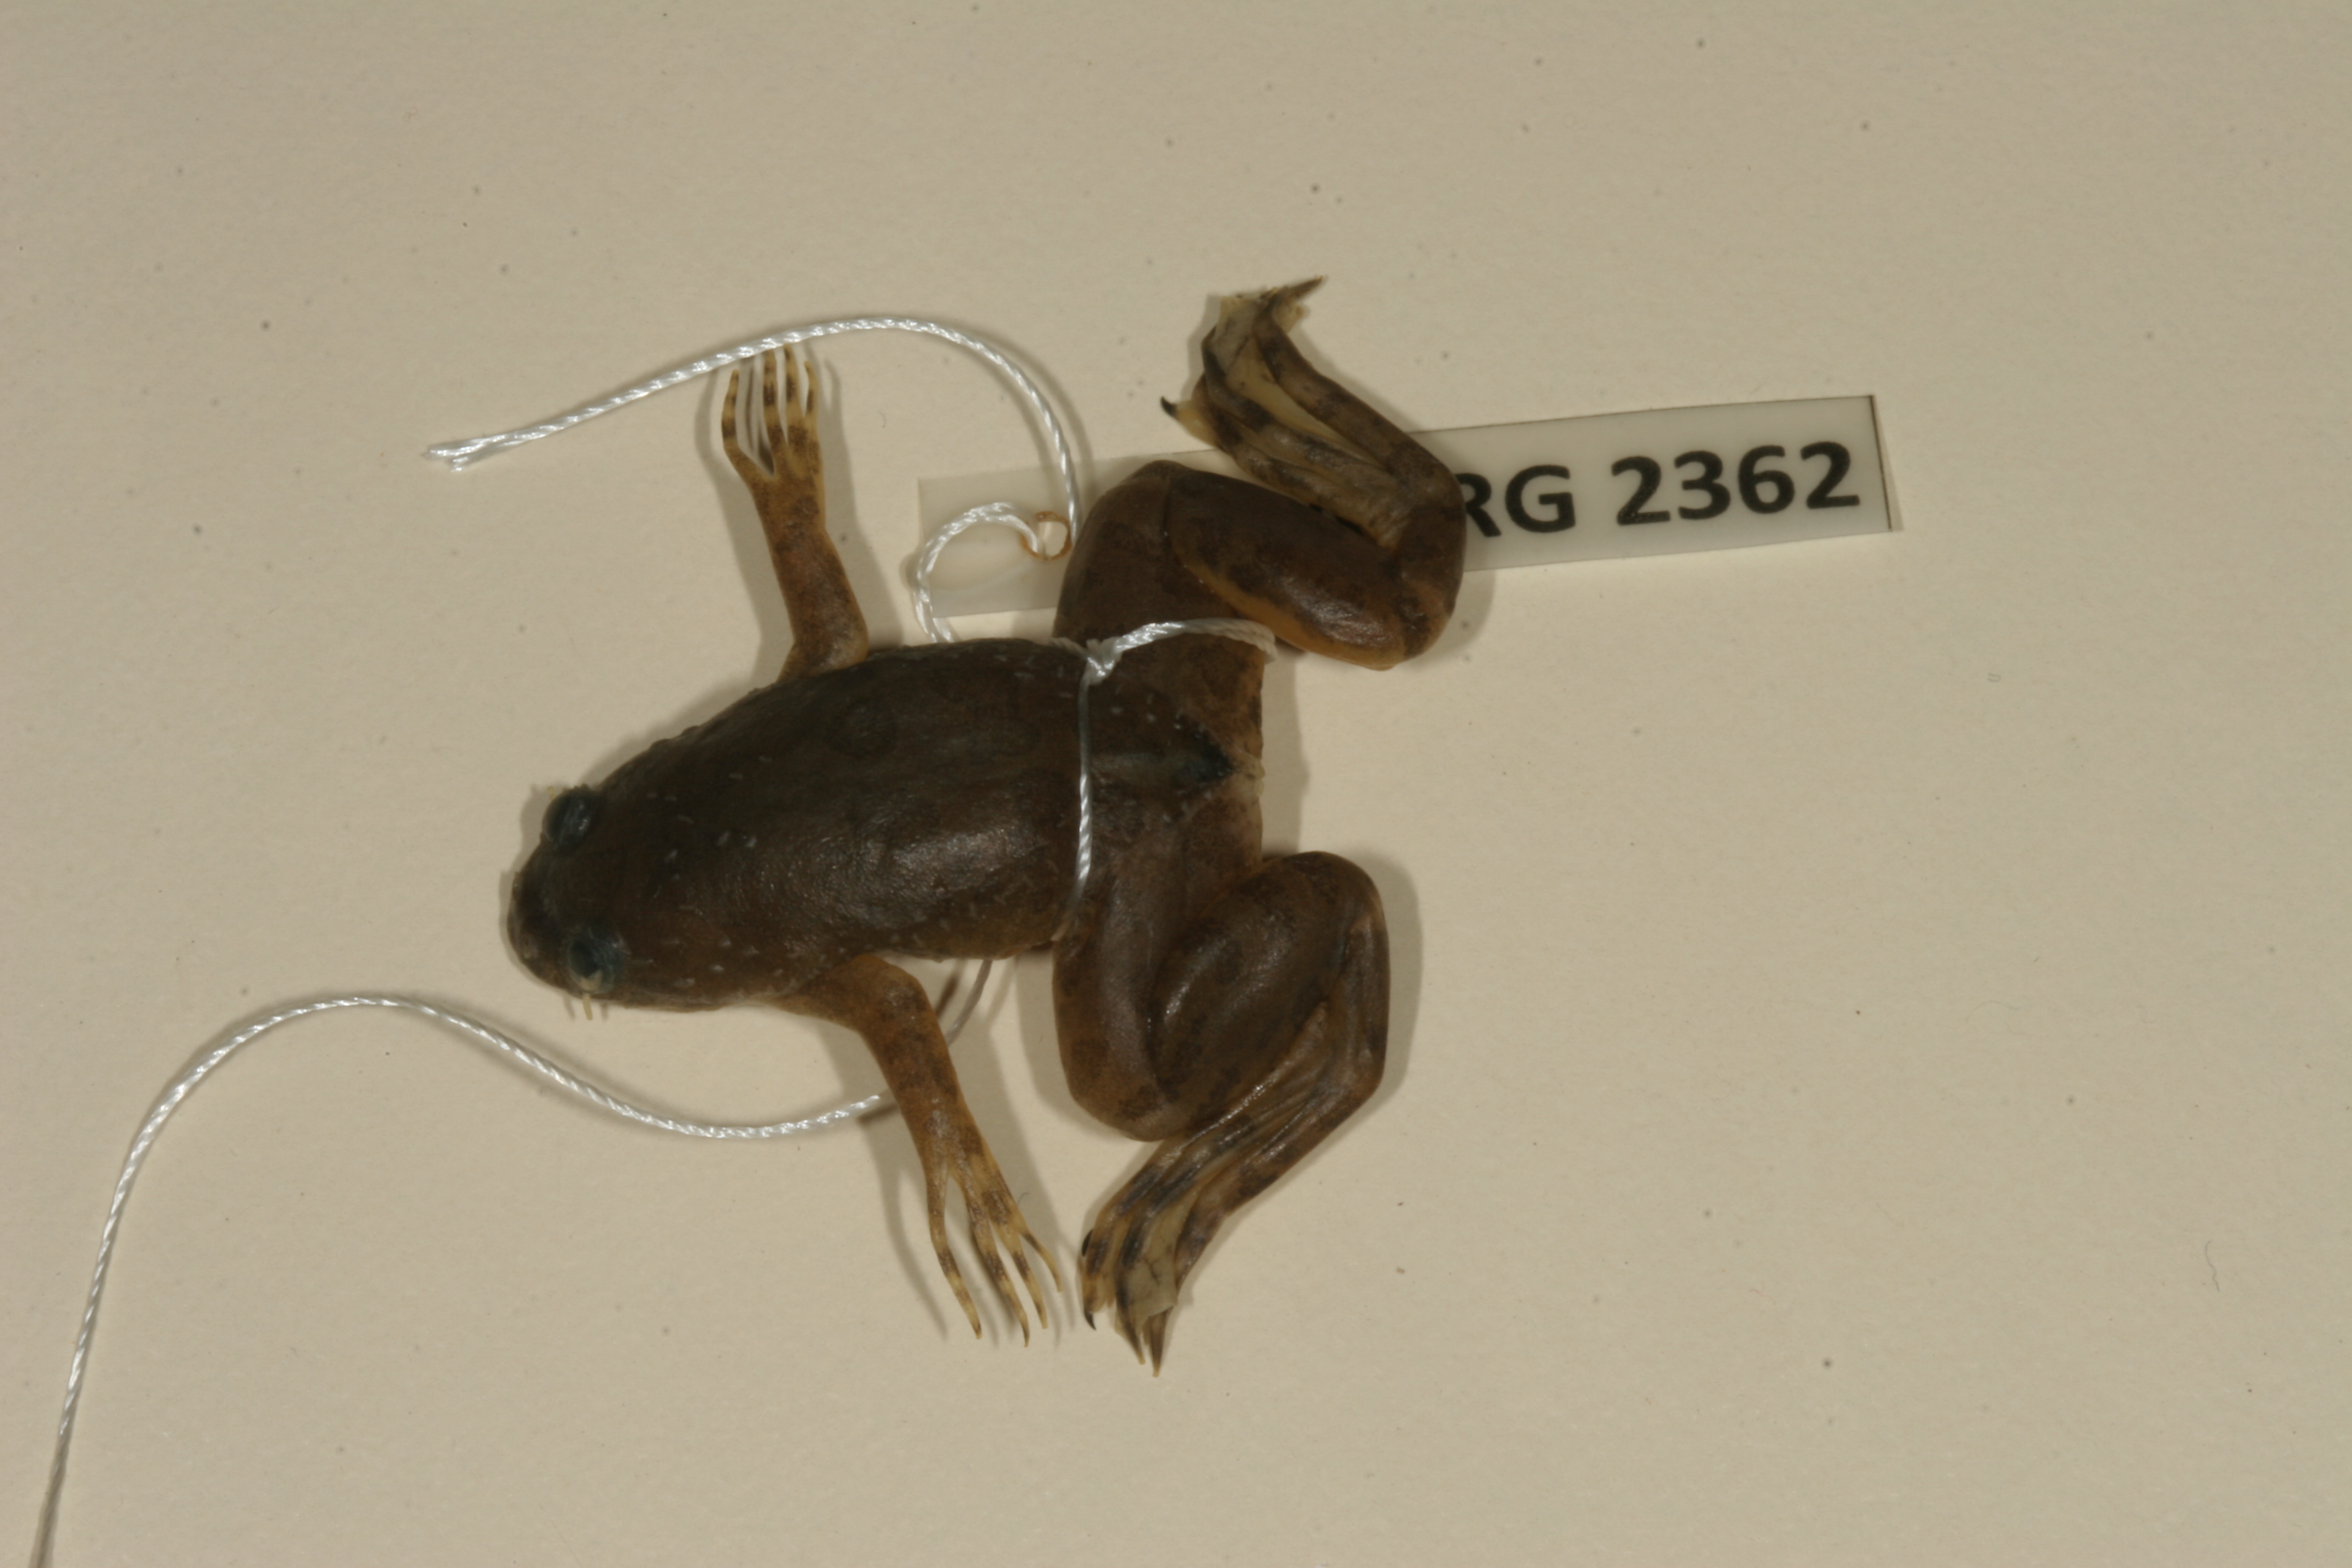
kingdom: Animalia
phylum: Chordata
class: Amphibia
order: Anura
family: Pipidae
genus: Xenopus
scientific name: Xenopus muelleri
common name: Muller's clawed frog
